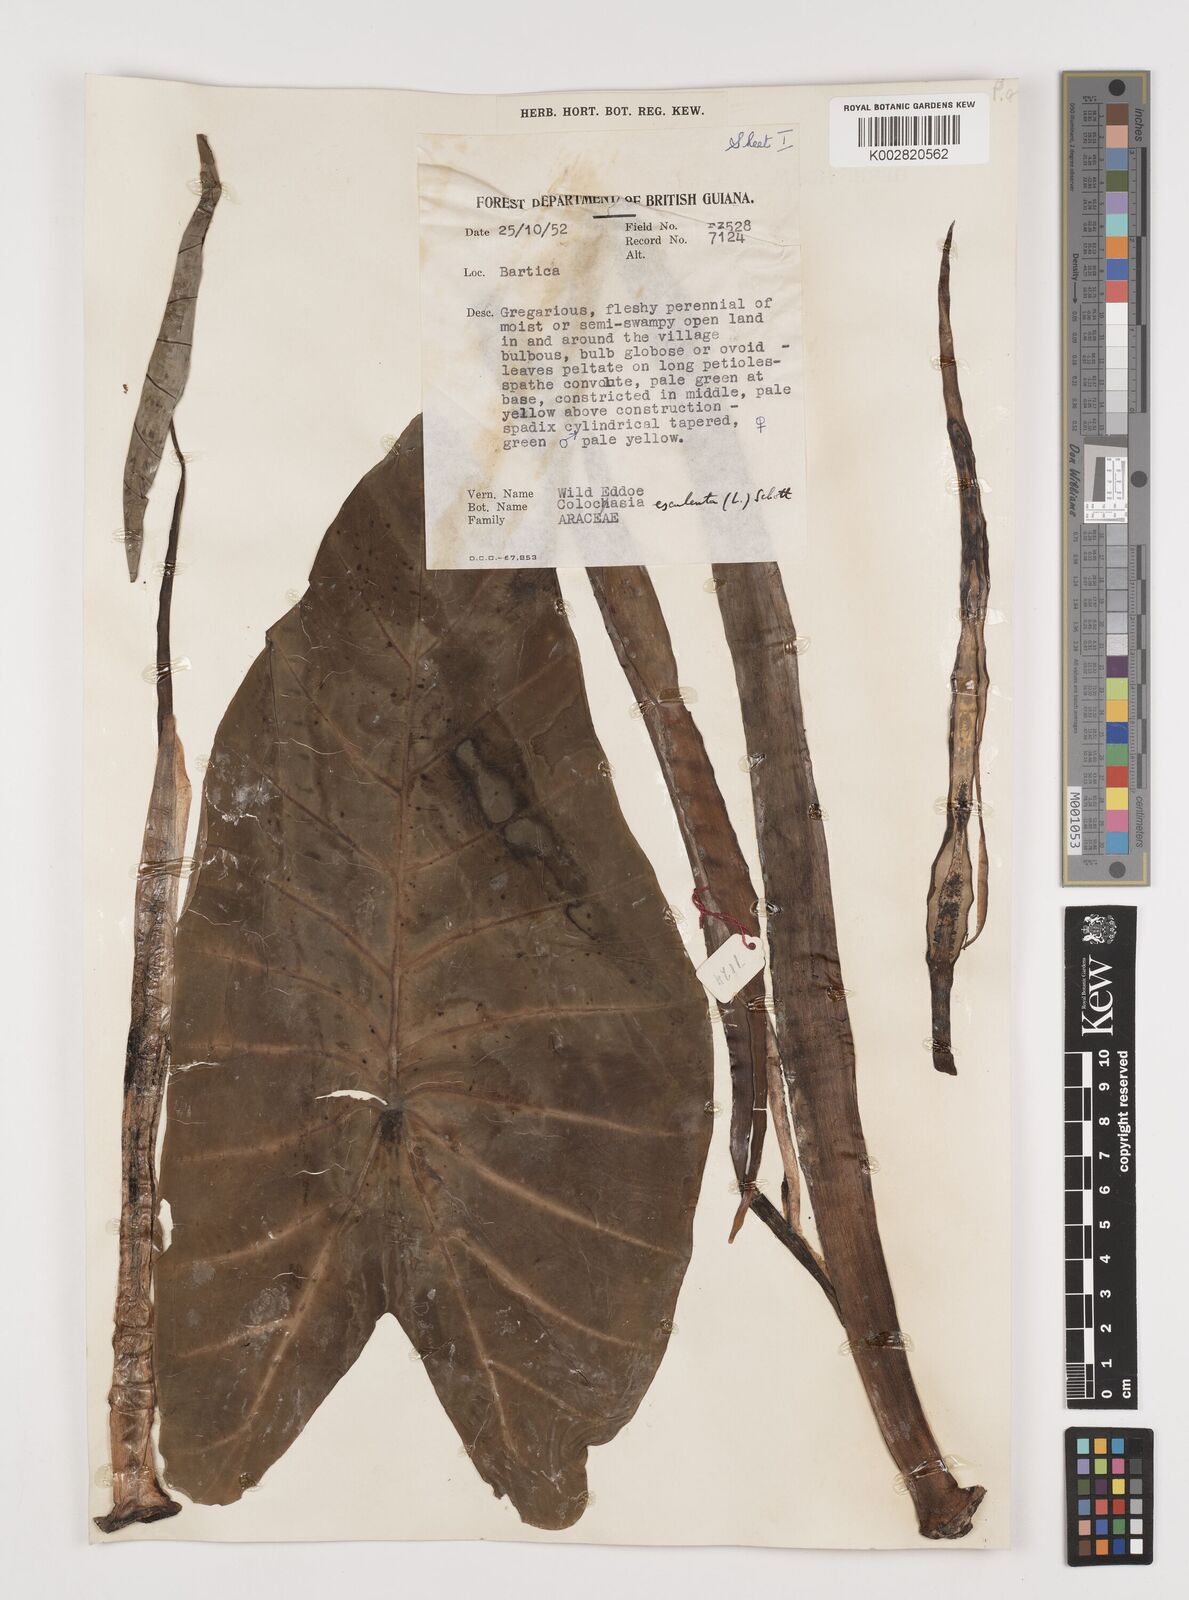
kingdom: Plantae
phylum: Tracheophyta
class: Liliopsida
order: Alismatales
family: Araceae
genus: Colocasia
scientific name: Colocasia esculenta
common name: Taro
